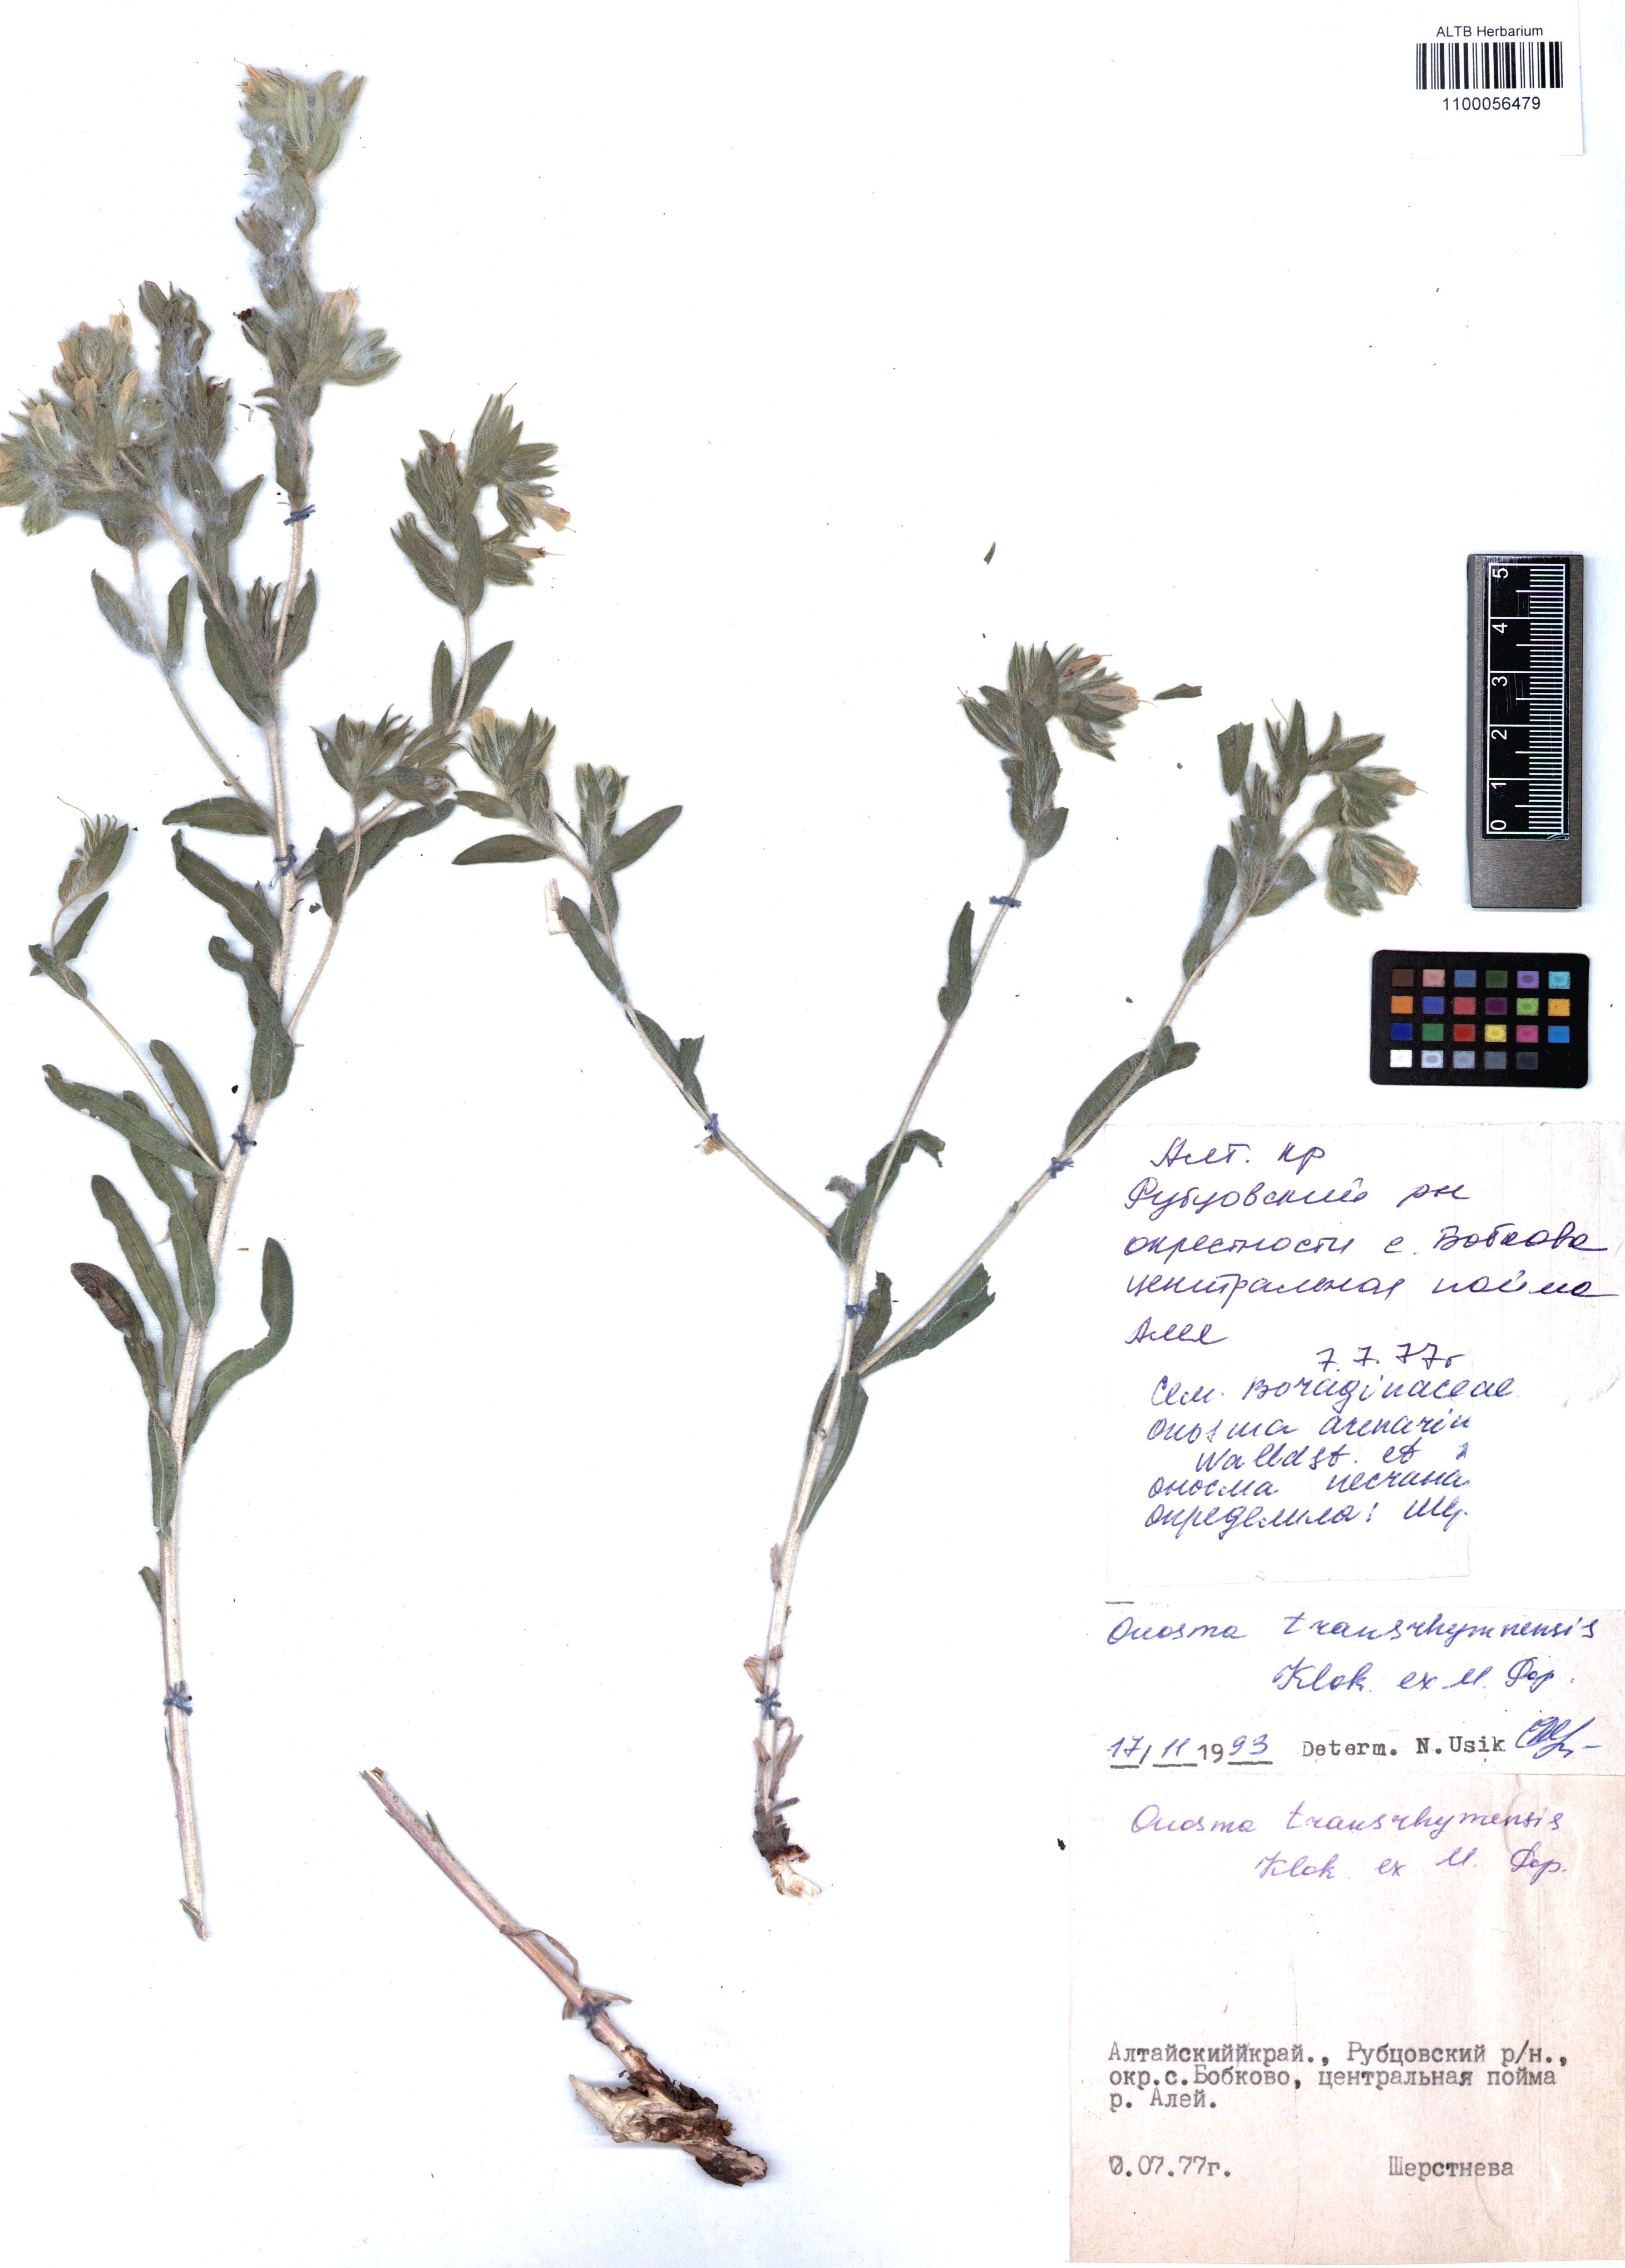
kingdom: Plantae
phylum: Tracheophyta
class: Magnoliopsida
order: Boraginales
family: Boraginaceae
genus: Onosma
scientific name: Onosma transrhymnensis
